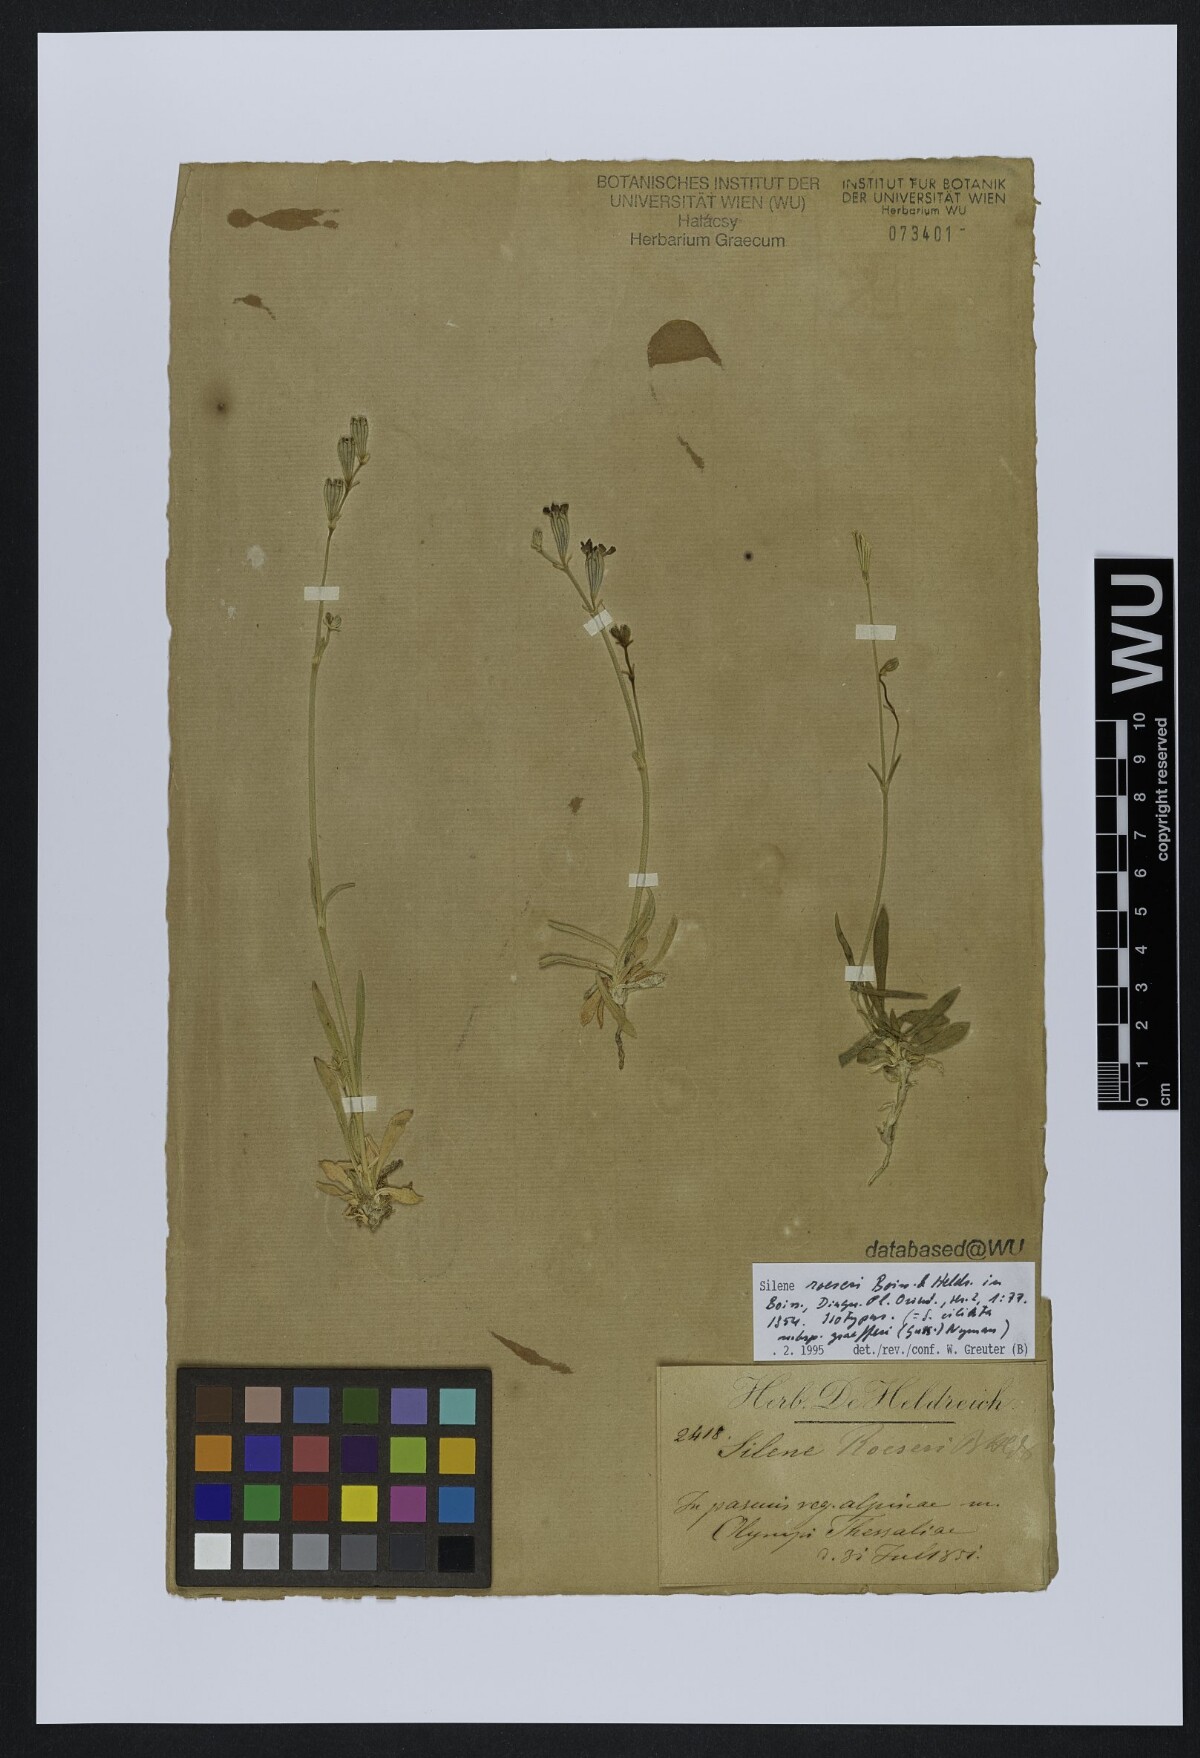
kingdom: Plantae
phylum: Tracheophyta
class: Magnoliopsida
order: Caryophyllales
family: Caryophyllaceae
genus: Silene
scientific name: Silene ciliata
